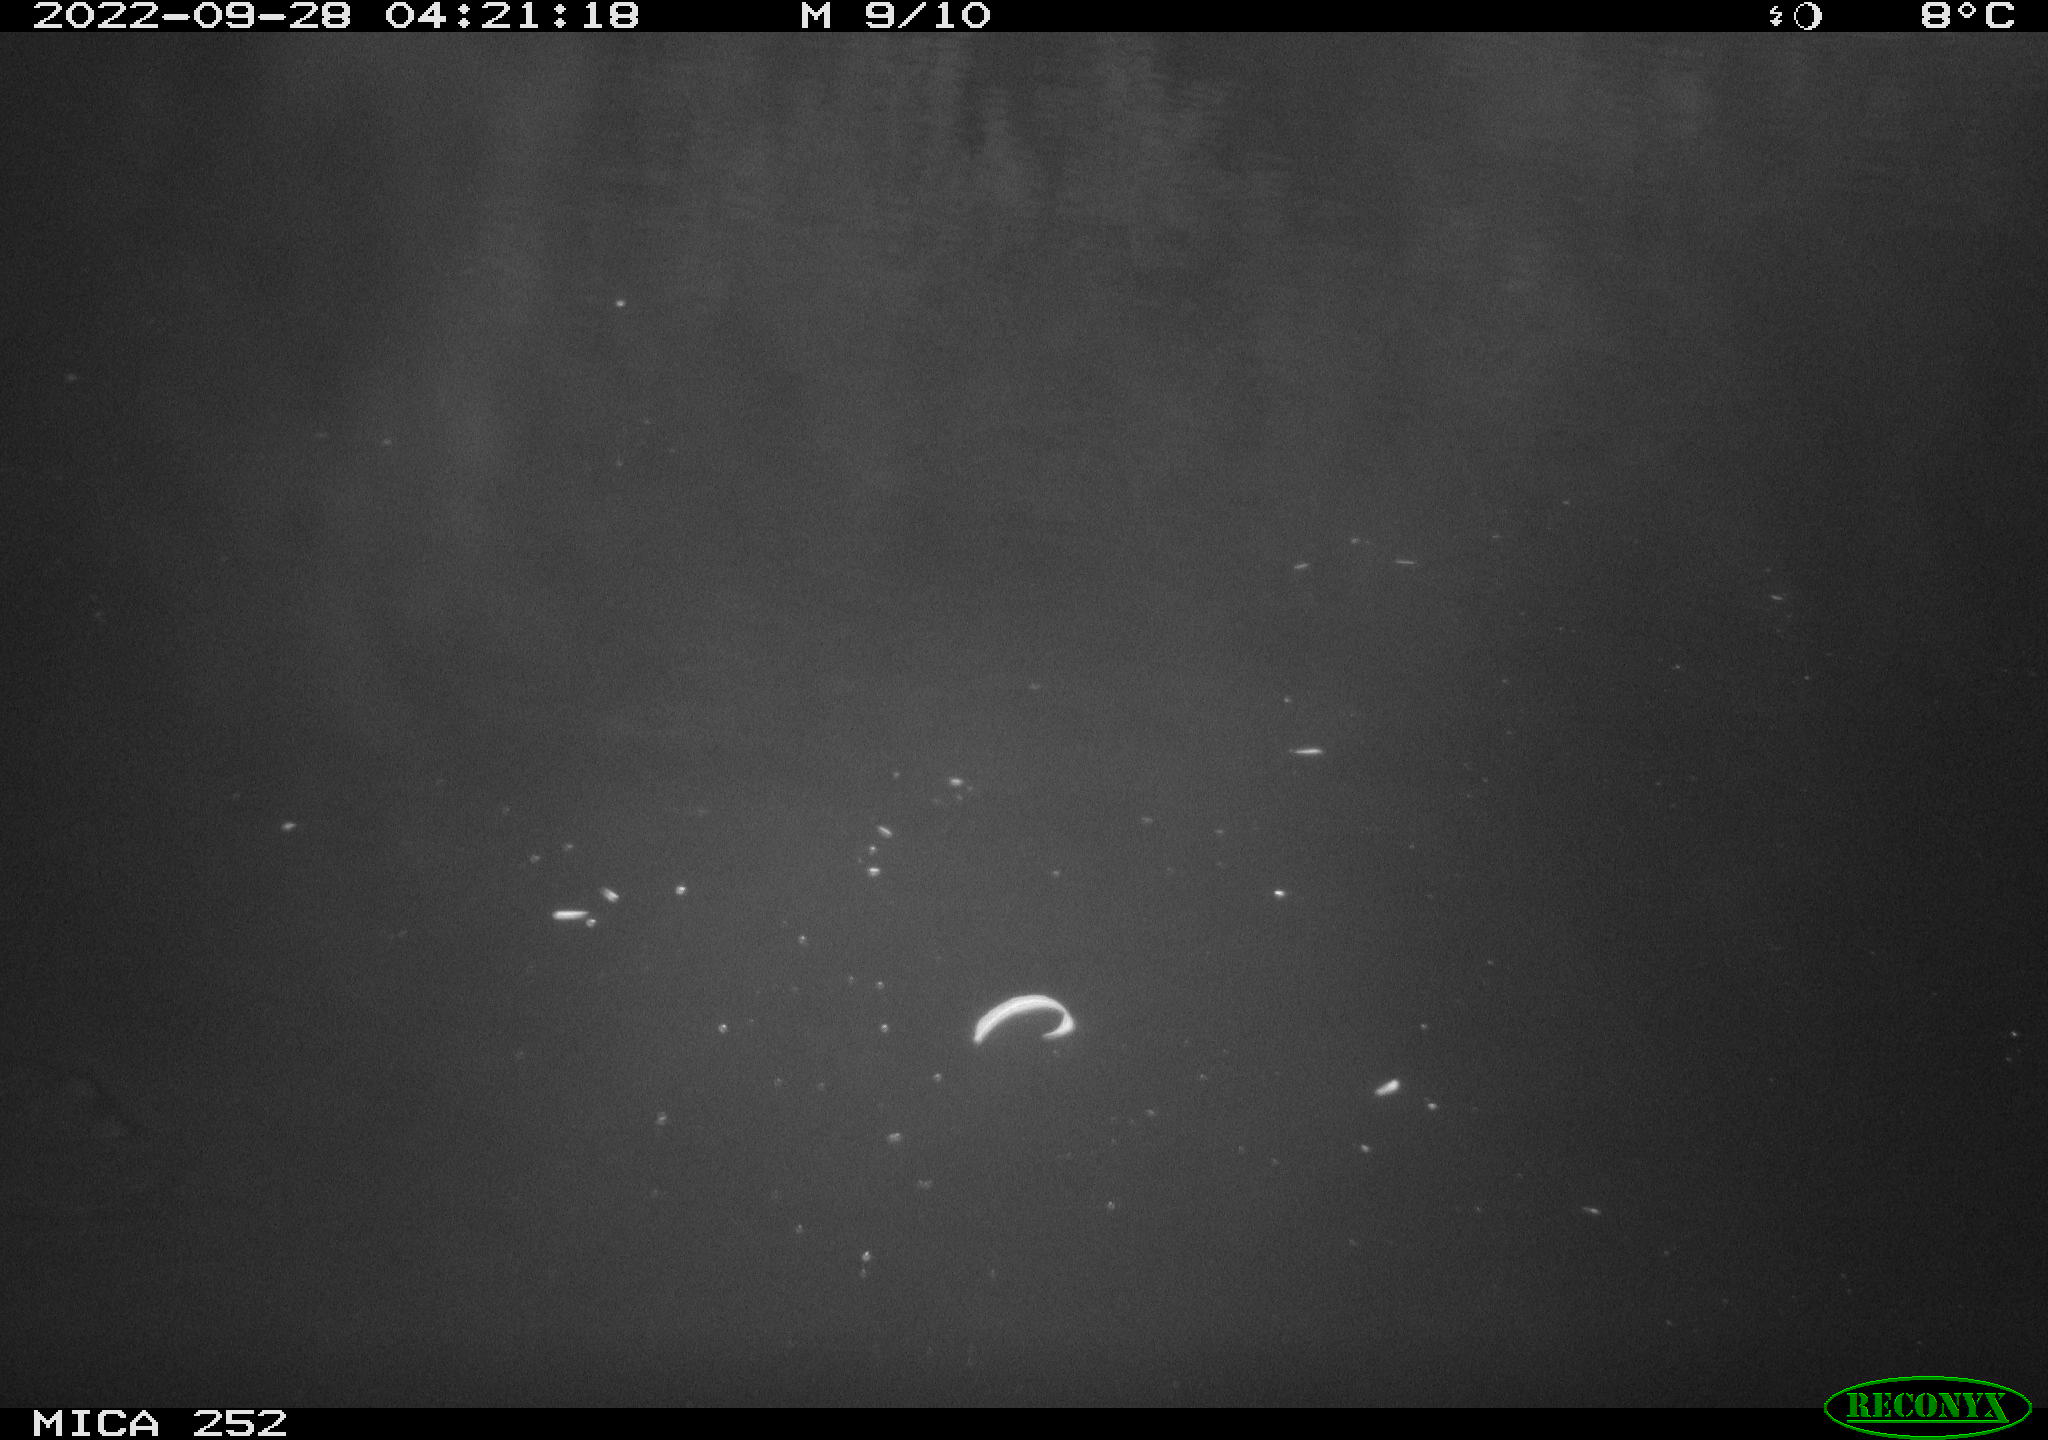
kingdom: Animalia
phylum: Chordata
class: Mammalia
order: Rodentia
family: Castoridae
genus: Castor
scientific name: Castor fiber
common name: Eurasian beaver
